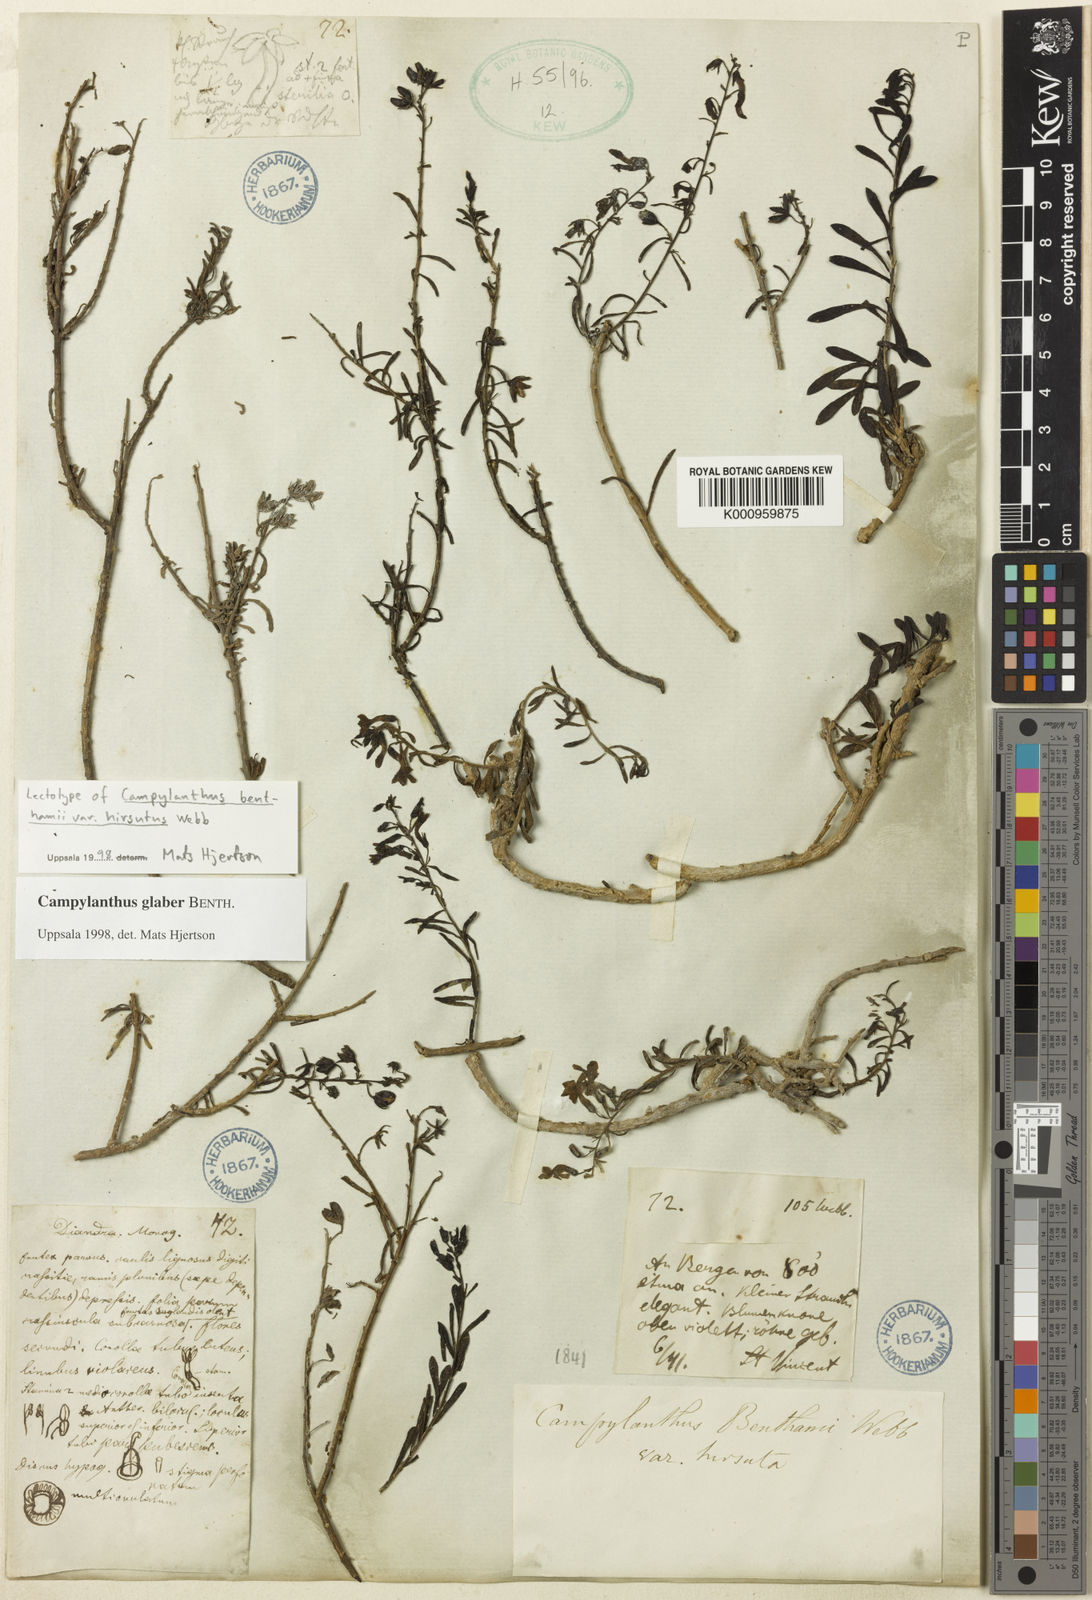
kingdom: Plantae
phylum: Tracheophyta
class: Magnoliopsida
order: Lamiales
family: Plantaginaceae
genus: Campylanthus
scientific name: Campylanthus glaber
